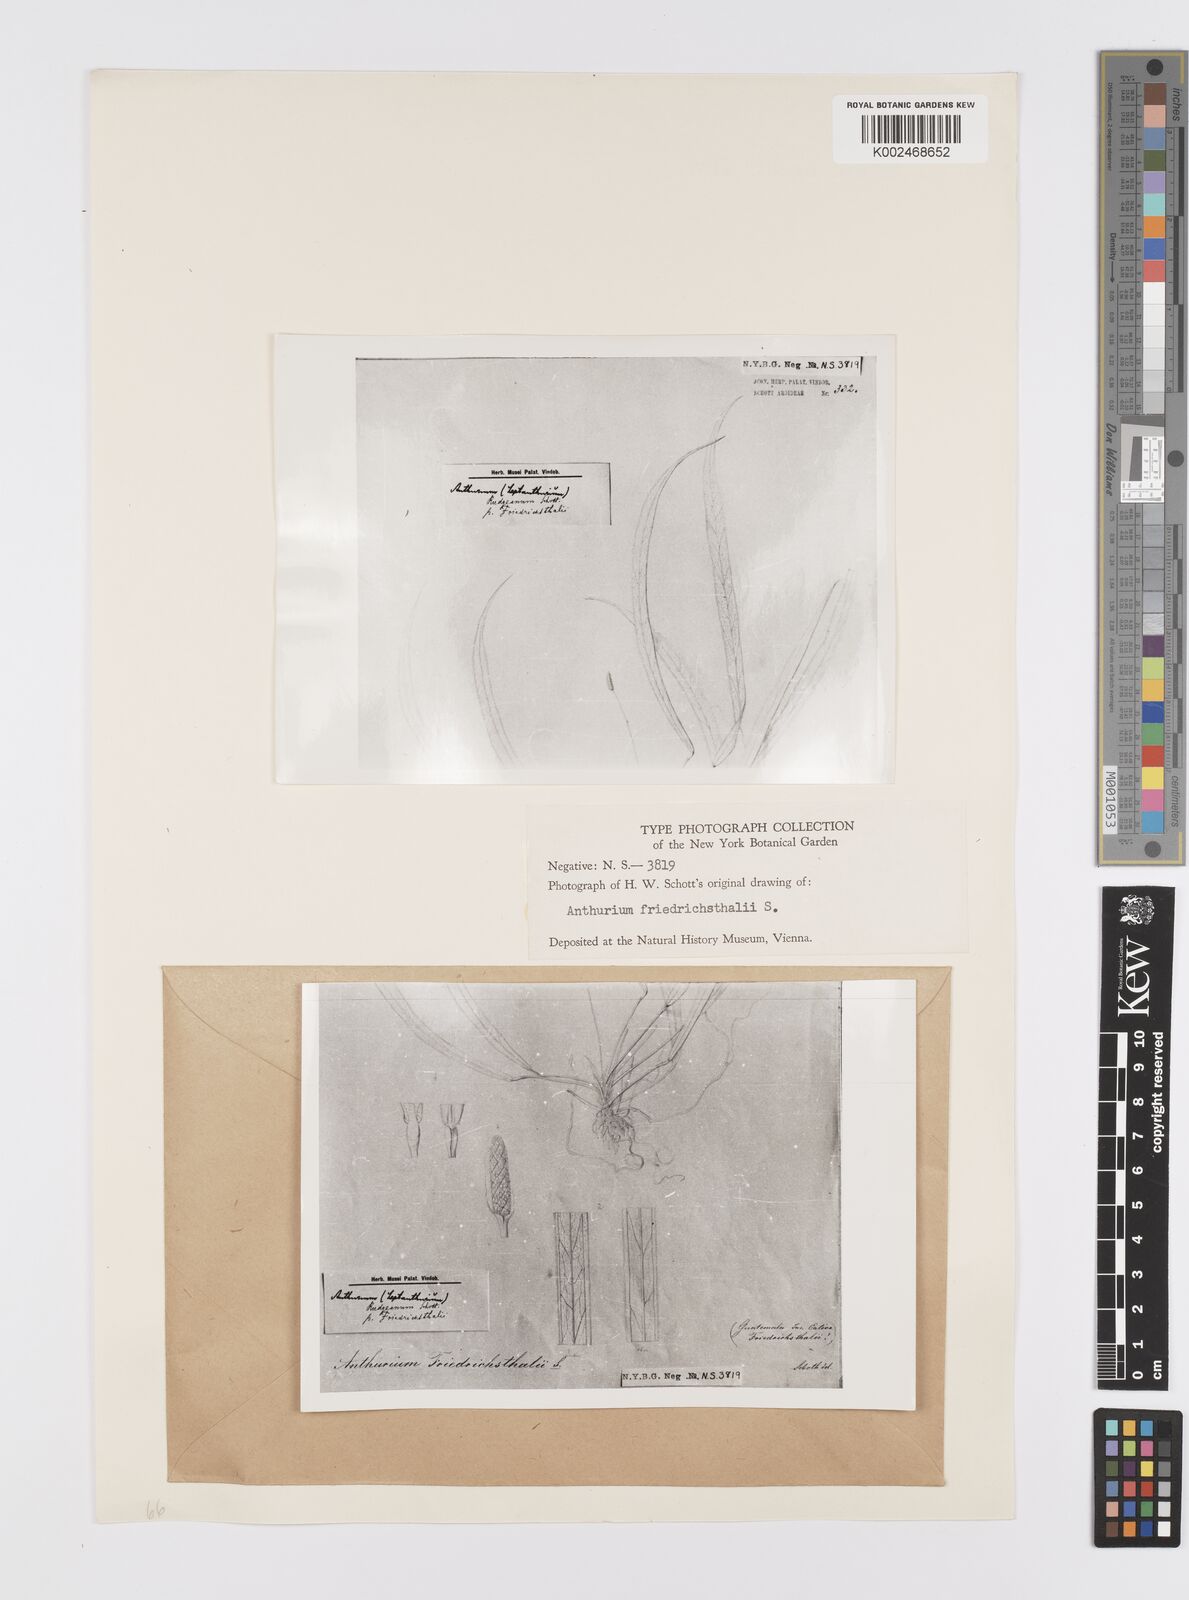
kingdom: Plantae
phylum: Tracheophyta
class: Liliopsida
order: Alismatales
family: Araceae
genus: Anthurium
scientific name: Anthurium friedrichsthalii
